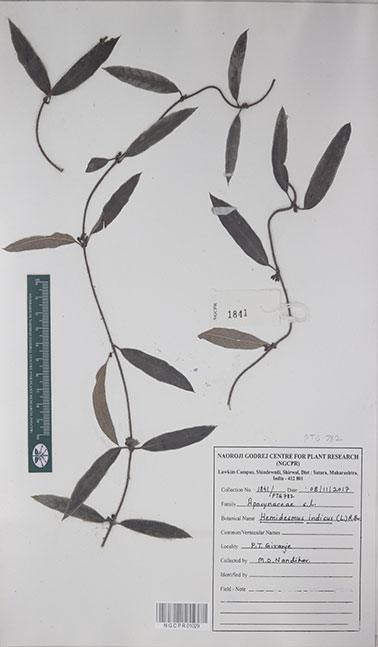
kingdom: Plantae
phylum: Tracheophyta
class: Magnoliopsida
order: Gentianales
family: Apocynaceae
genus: Hemidesmus
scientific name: Hemidesmus indicus
